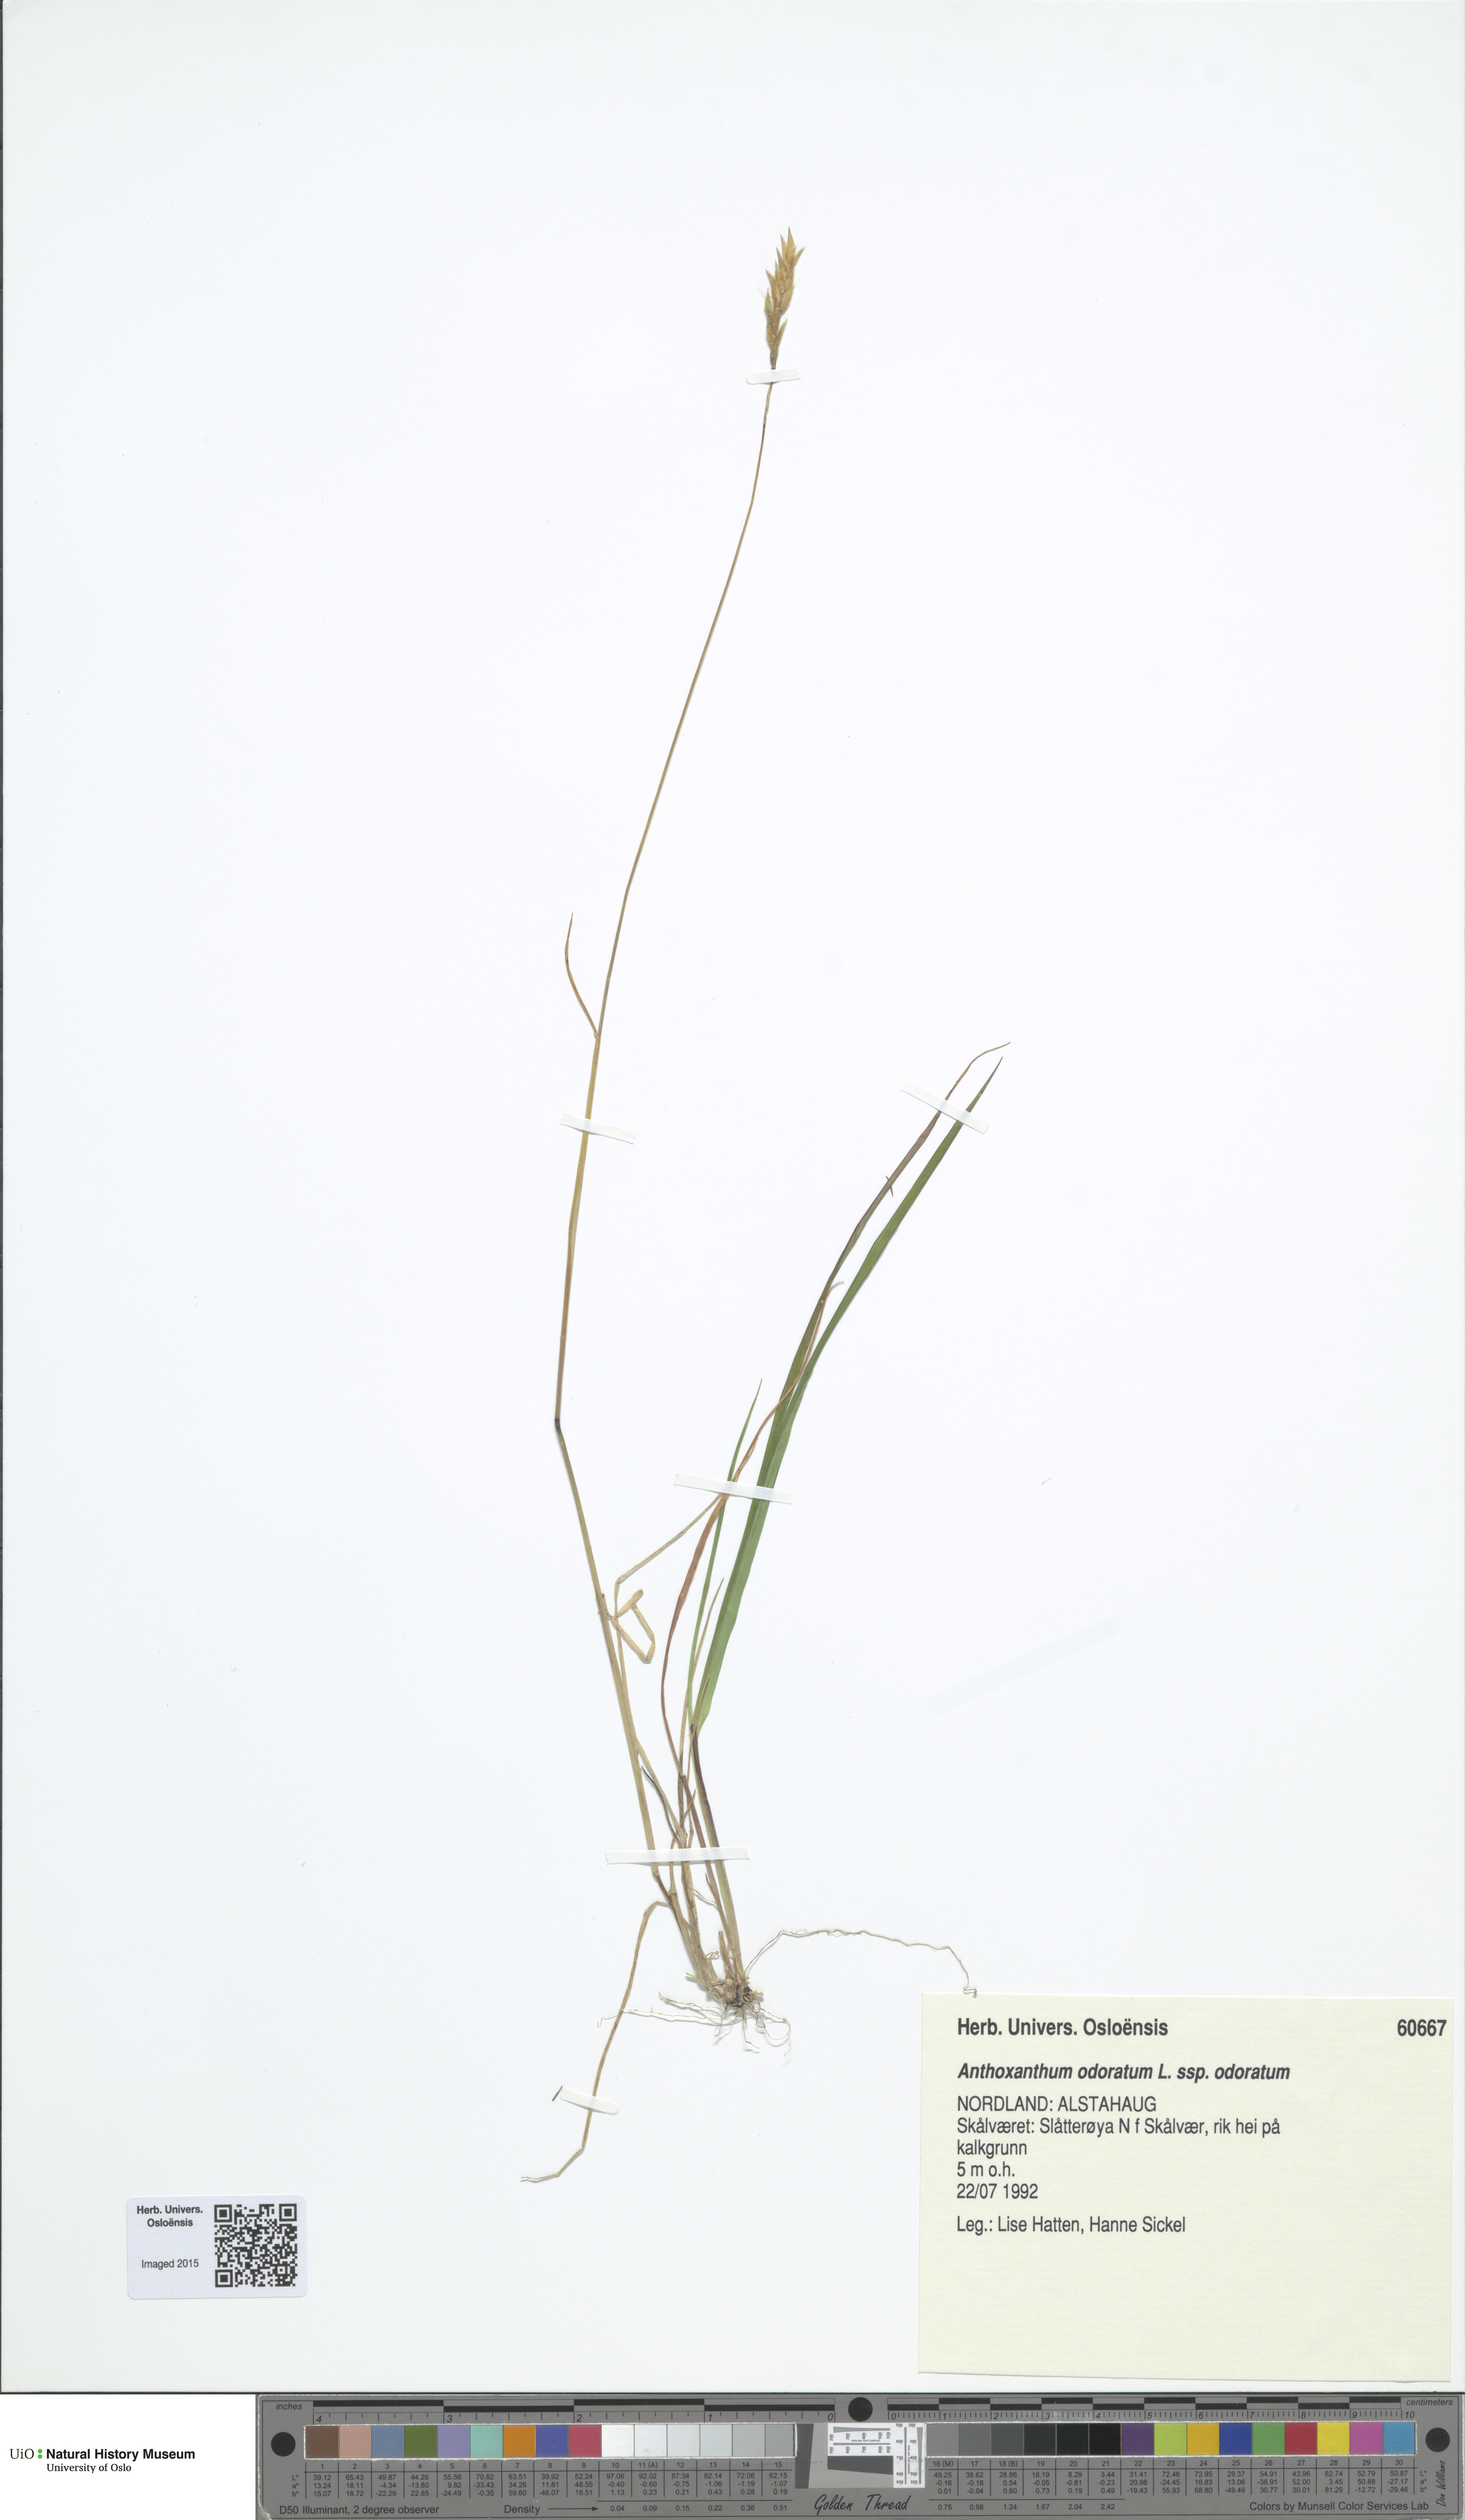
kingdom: Plantae
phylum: Tracheophyta
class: Liliopsida
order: Poales
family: Poaceae
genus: Anthoxanthum
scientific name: Anthoxanthum odoratum
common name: Sweet vernalgrass
